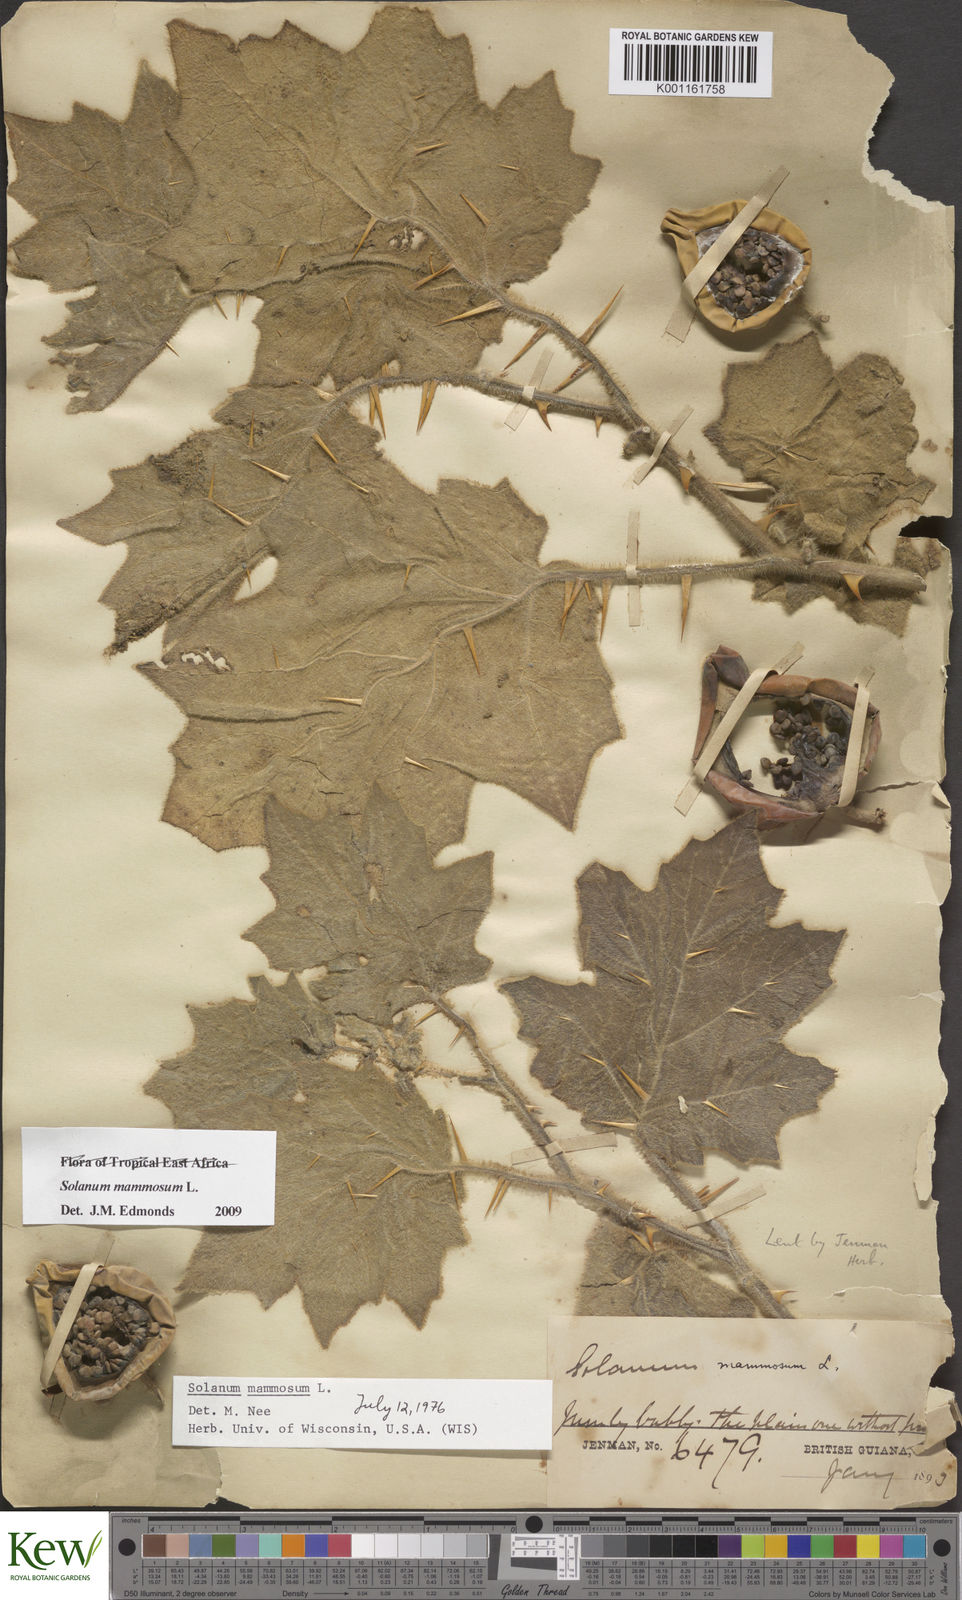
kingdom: Plantae
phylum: Tracheophyta
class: Magnoliopsida
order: Solanales
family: Solanaceae
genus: Solanum
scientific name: Solanum mammosum
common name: Nipple fruit
